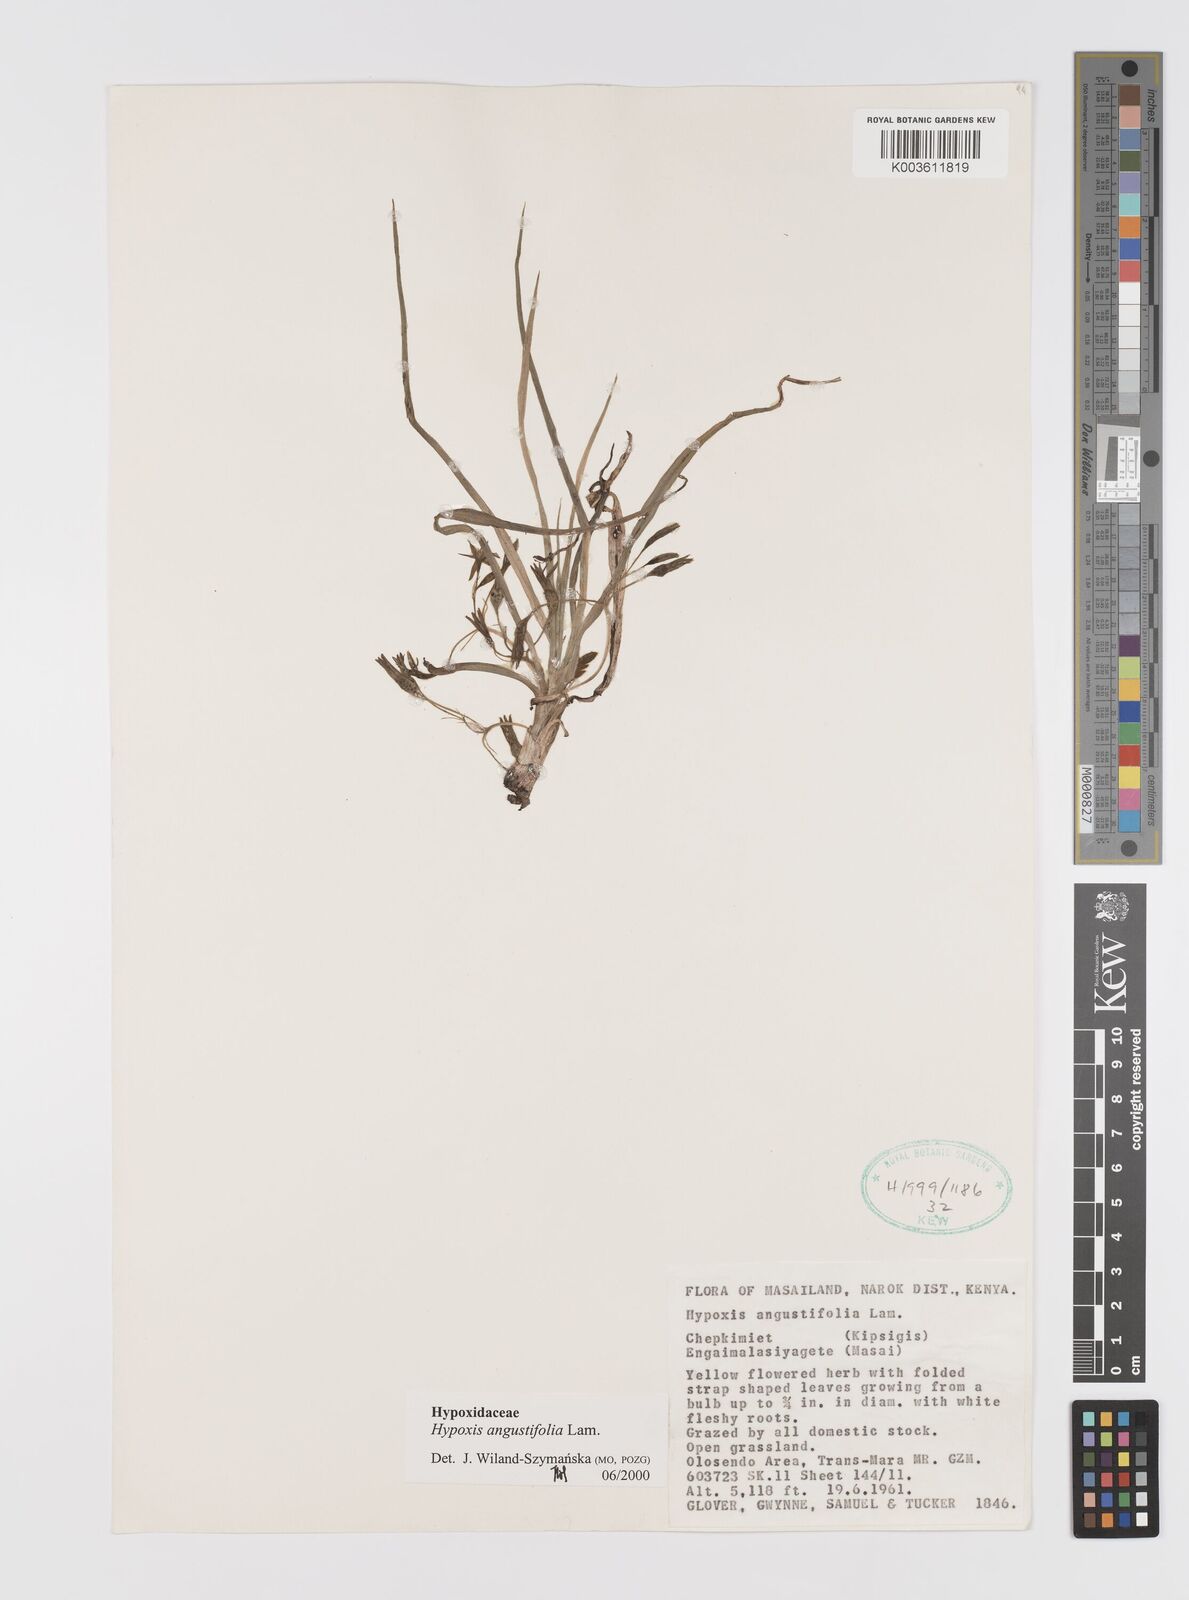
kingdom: Plantae
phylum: Tracheophyta
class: Liliopsida
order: Asparagales
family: Hypoxidaceae
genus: Hypoxis
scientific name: Hypoxis angustifolia
